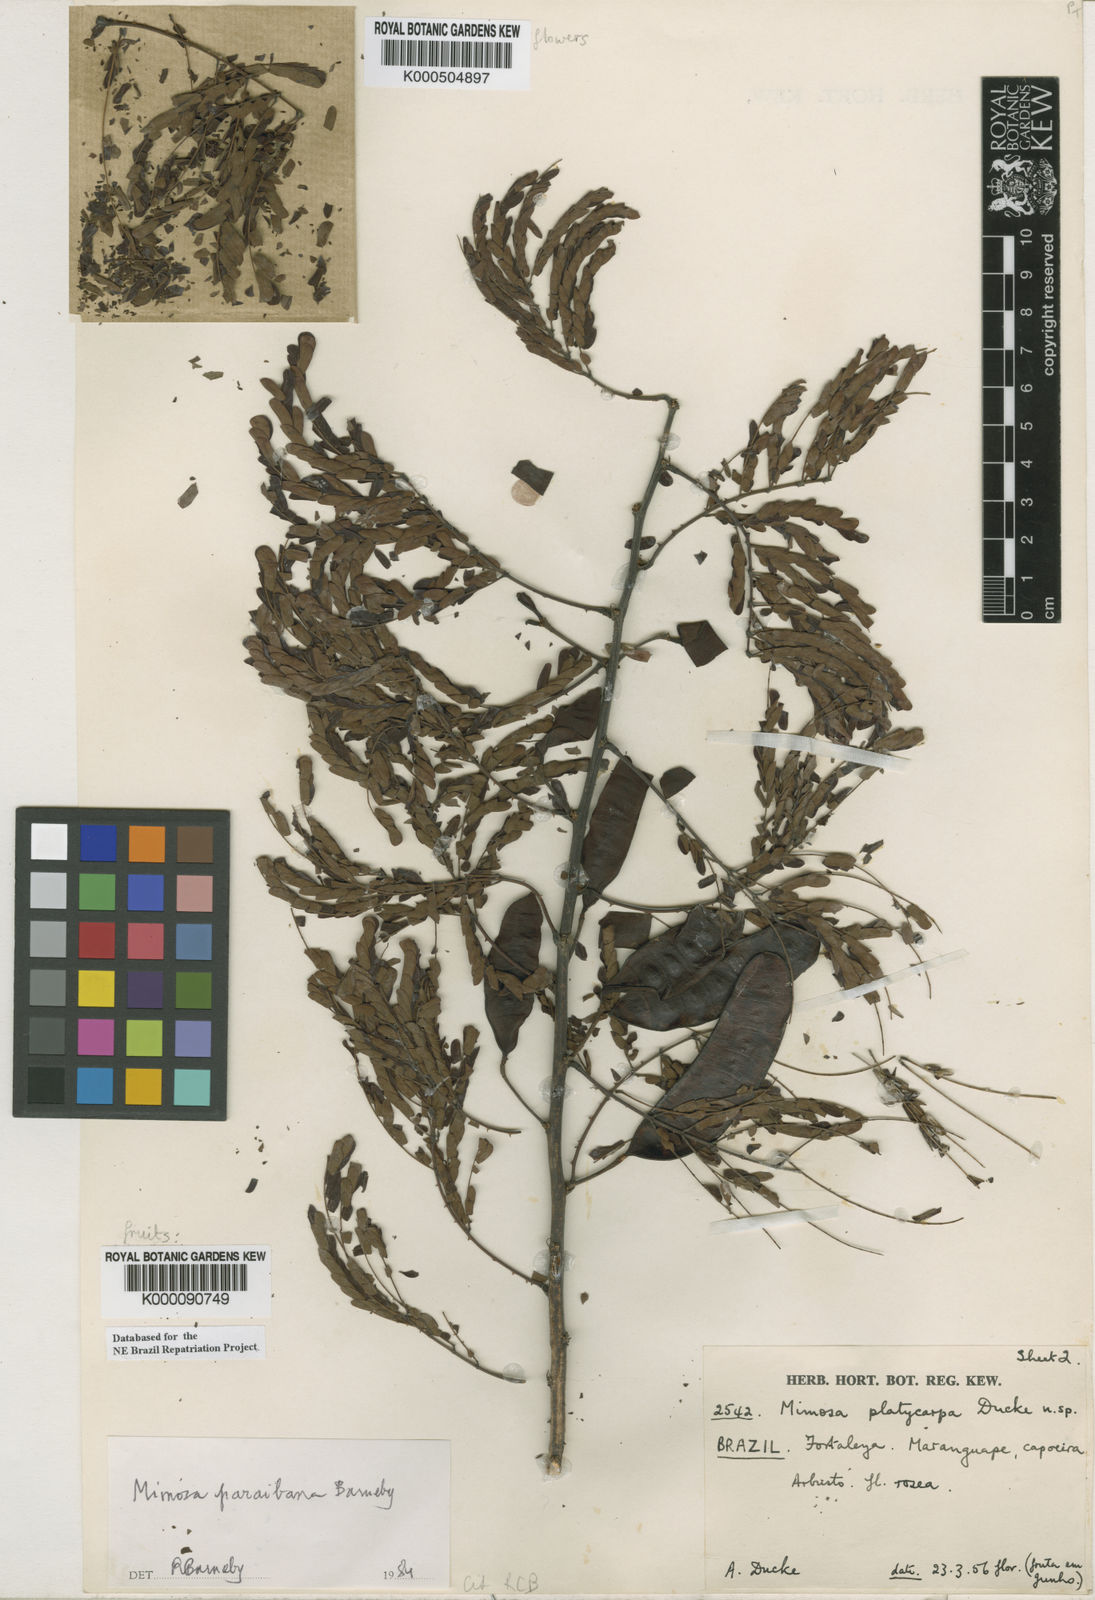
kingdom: Plantae
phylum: Tracheophyta
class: Magnoliopsida
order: Fabales
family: Fabaceae
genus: Mimosa
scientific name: Mimosa paraibana
